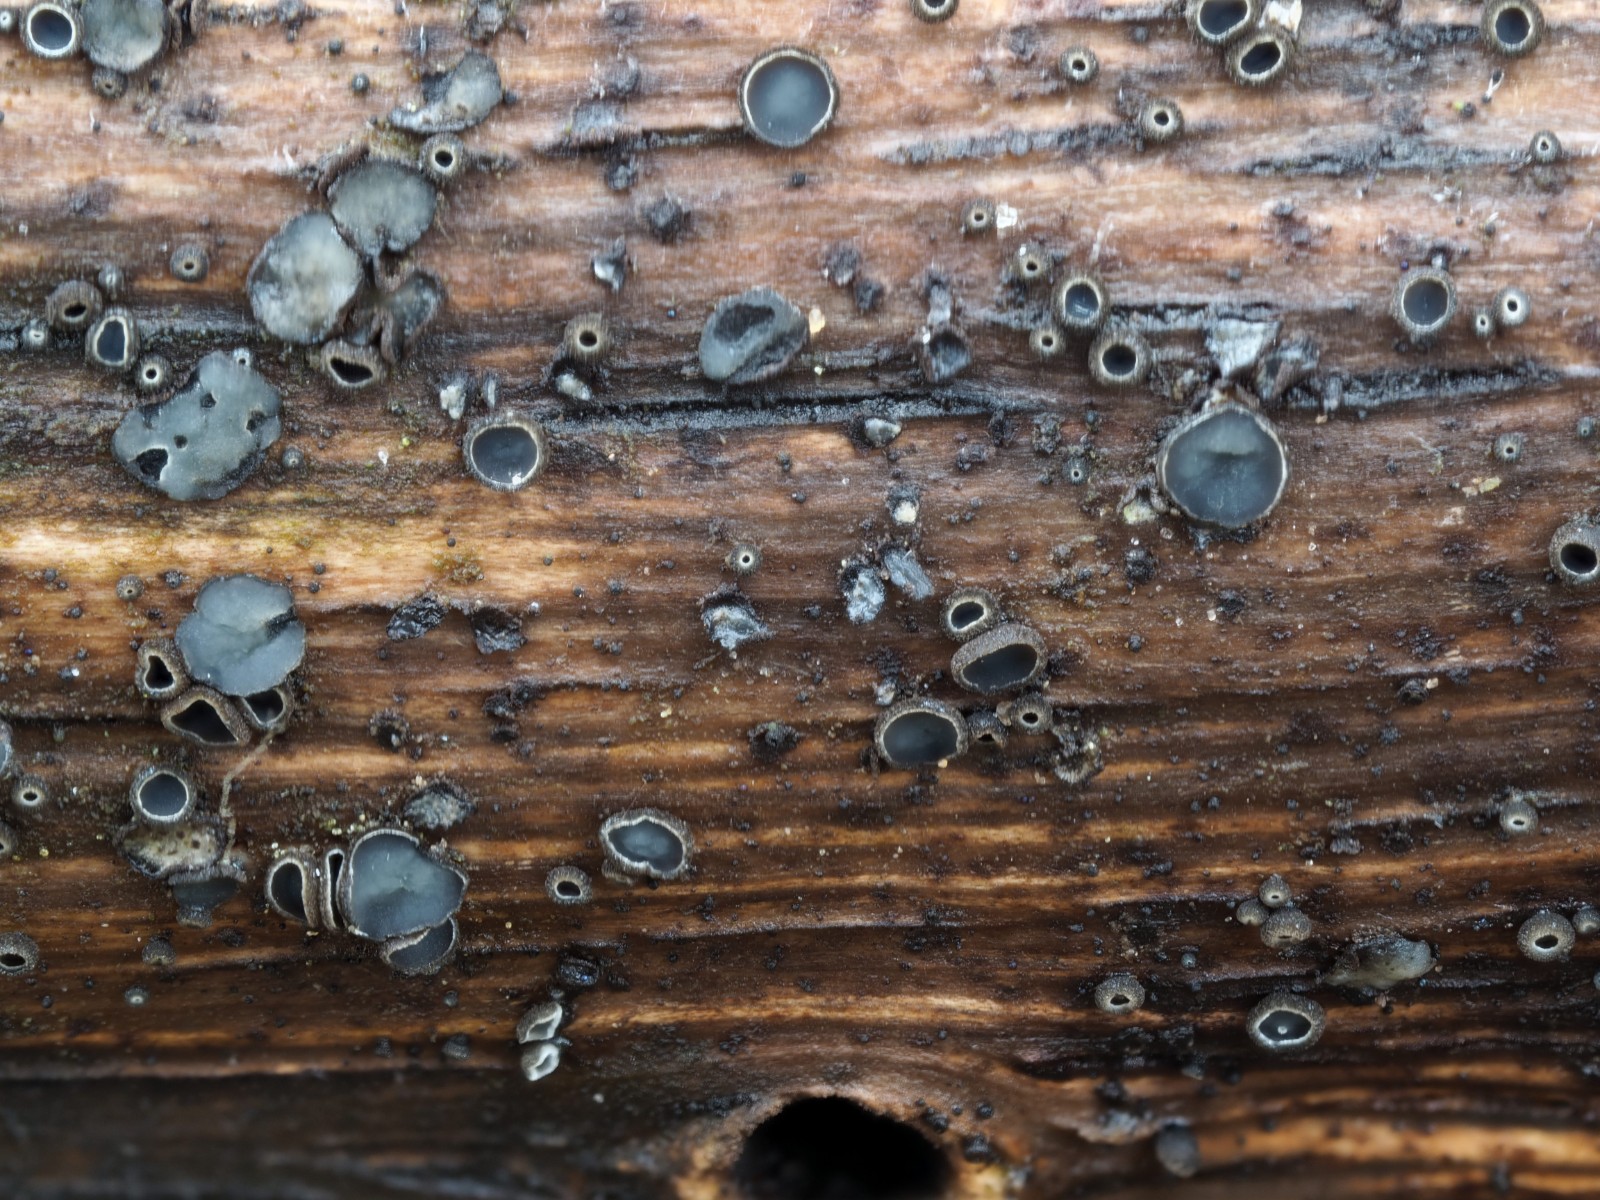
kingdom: Fungi
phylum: Ascomycota
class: Leotiomycetes
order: Helotiales
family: Mollisiaceae
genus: Mollisia
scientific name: Mollisia ligni
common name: ved-gråskive
